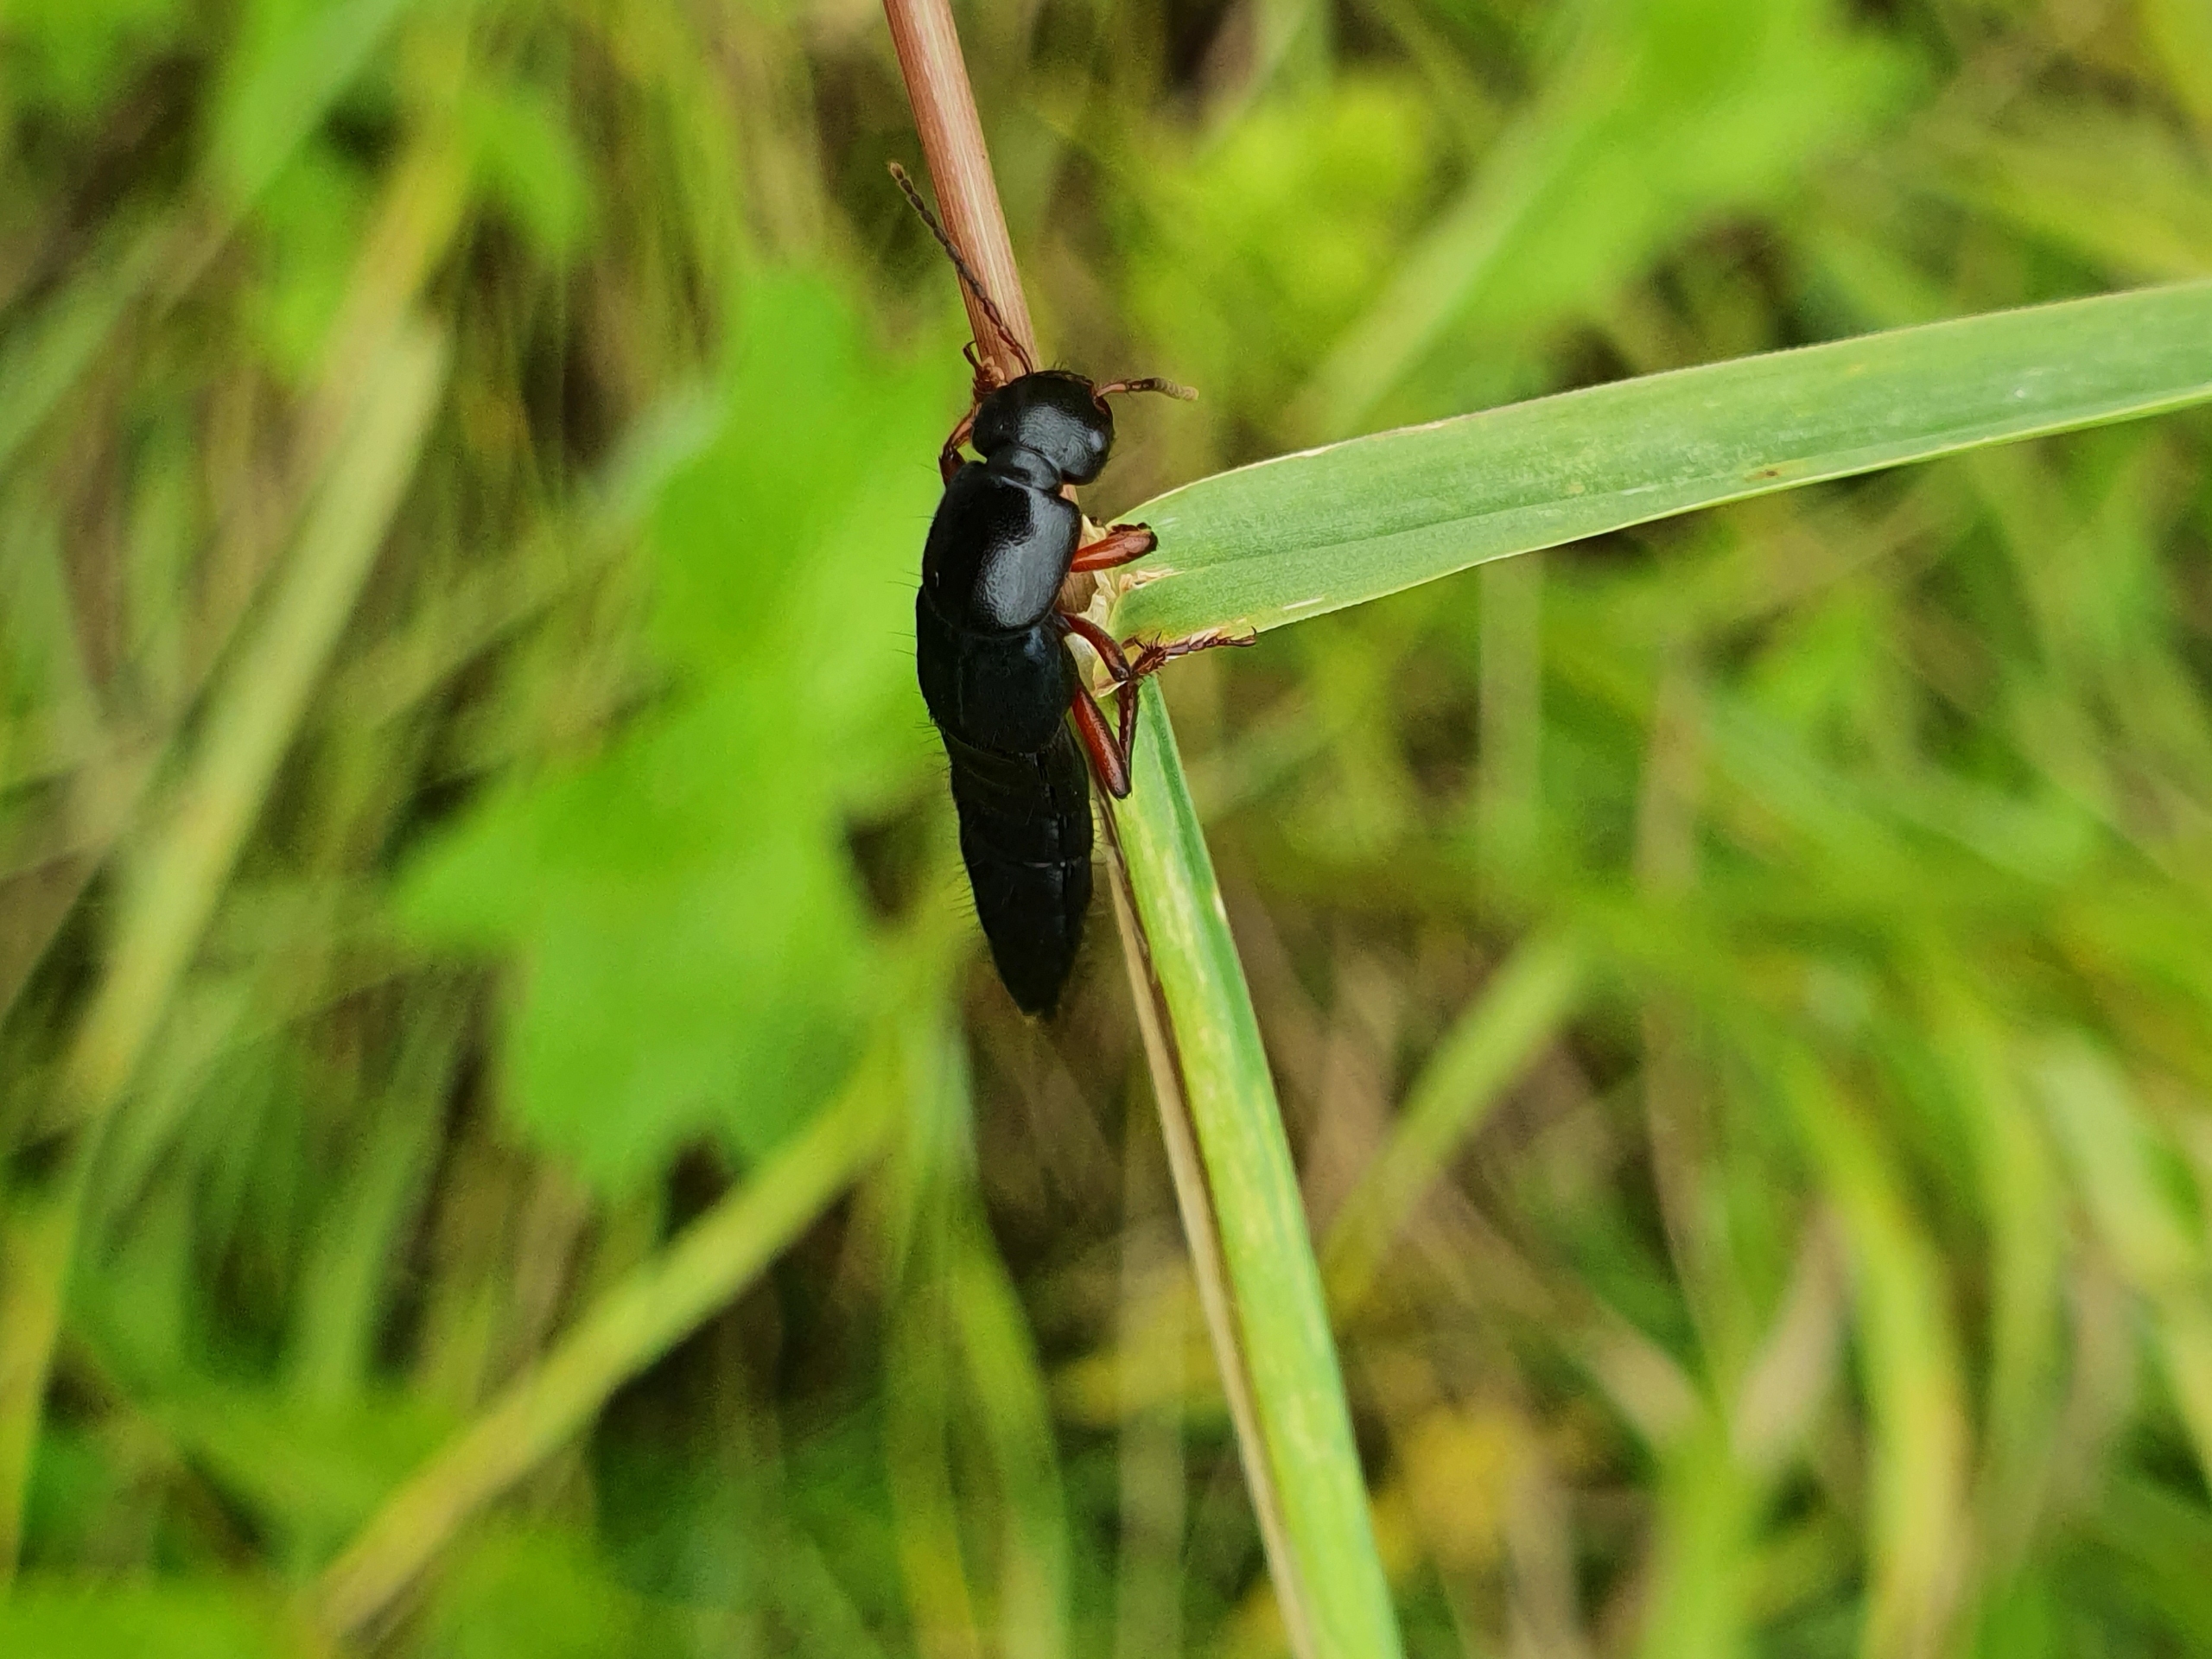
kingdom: Animalia
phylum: Arthropoda
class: Insecta
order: Coleoptera
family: Staphylinidae
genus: Tasgius
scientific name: Tasgius
